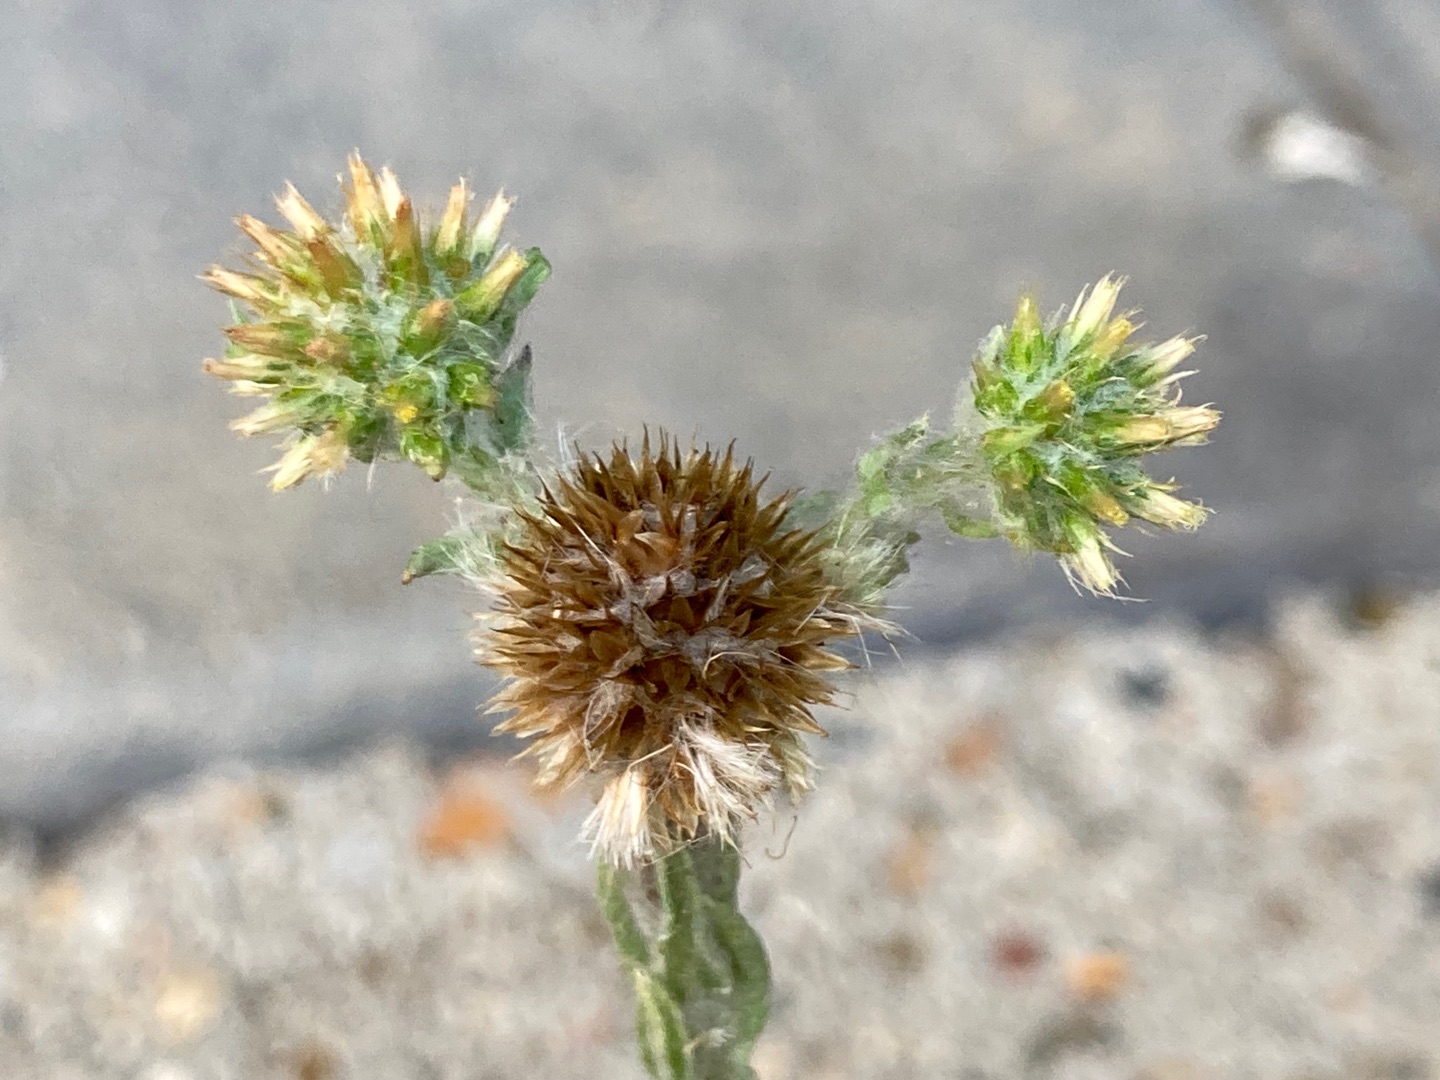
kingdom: Plantae
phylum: Tracheophyta
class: Magnoliopsida
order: Asterales
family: Asteraceae
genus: Filago
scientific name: Filago germanica
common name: Kugle-museurt
